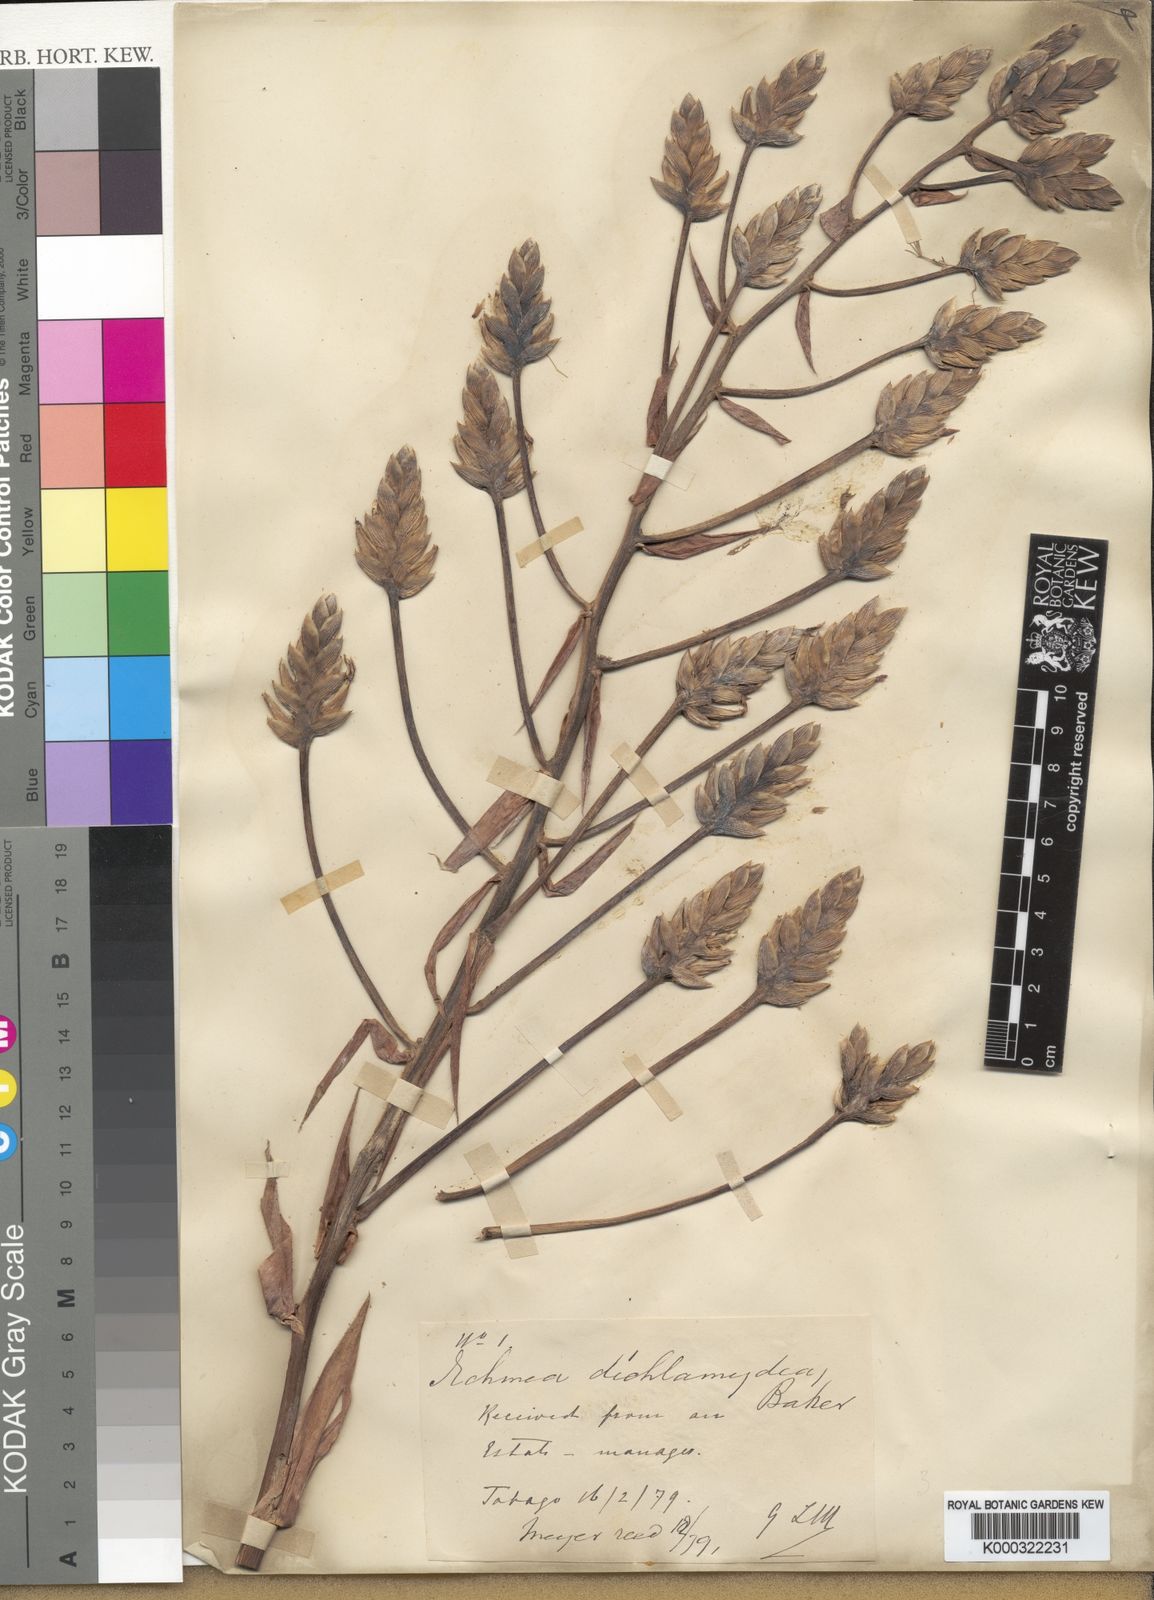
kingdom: Plantae
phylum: Tracheophyta
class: Liliopsida
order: Poales
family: Bromeliaceae
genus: Aechmea
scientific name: Aechmea dichlamydea
